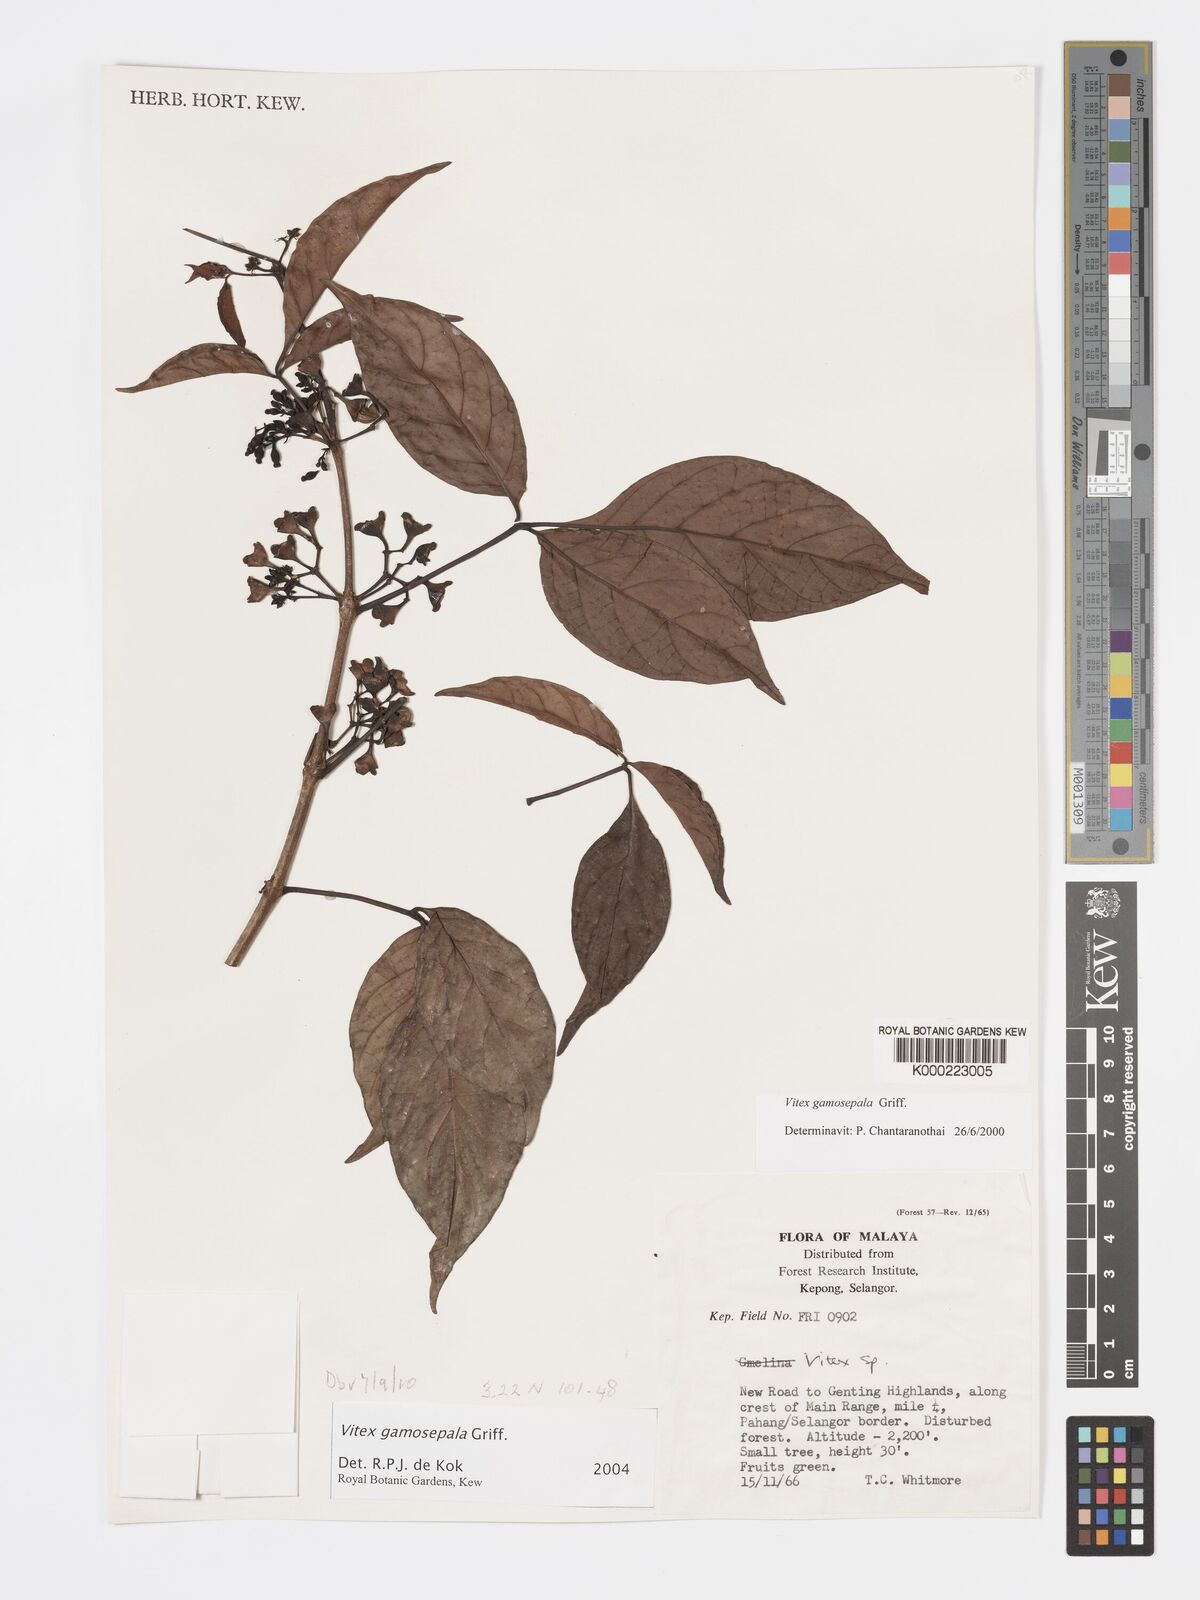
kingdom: Plantae
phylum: Tracheophyta
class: Magnoliopsida
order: Lamiales
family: Lamiaceae
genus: Vitex
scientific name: Vitex gamosepala
